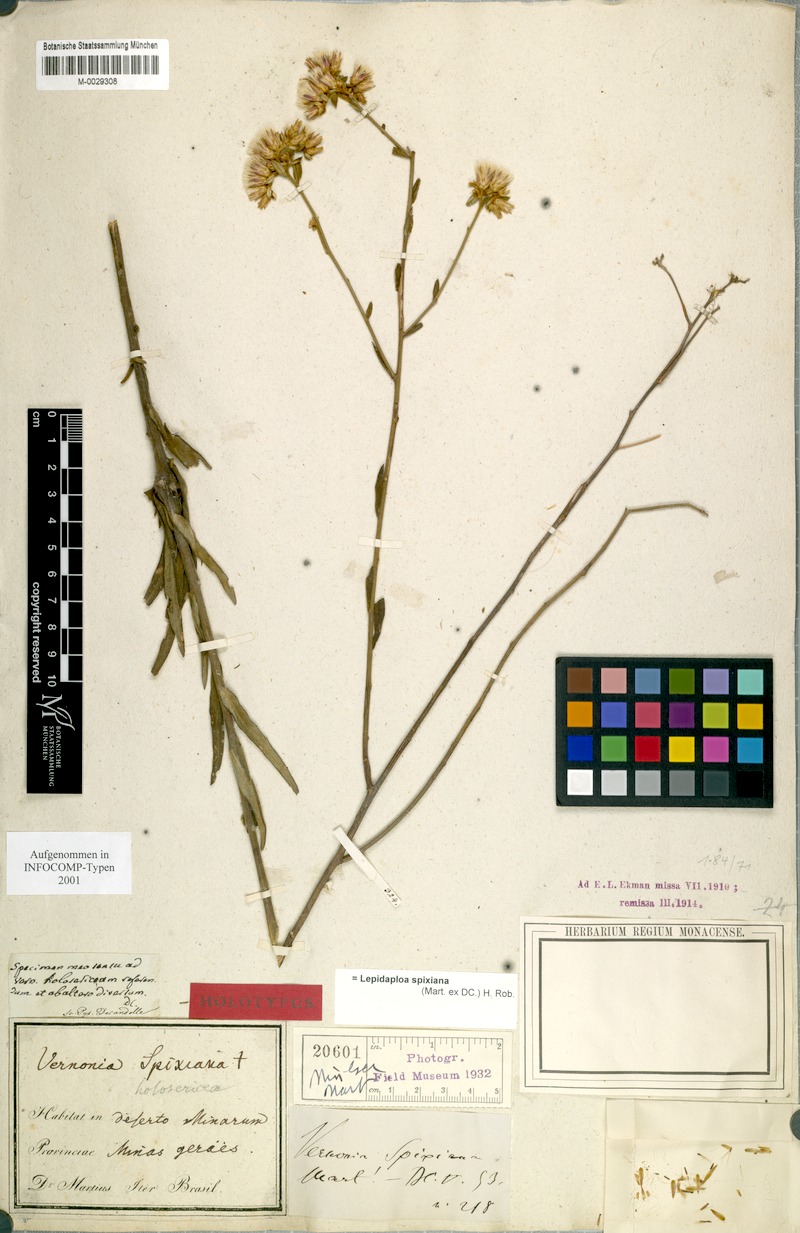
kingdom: Plantae
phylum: Tracheophyta
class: Magnoliopsida
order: Asterales
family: Asteraceae
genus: Lepidaploa
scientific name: Lepidaploa spixiana
